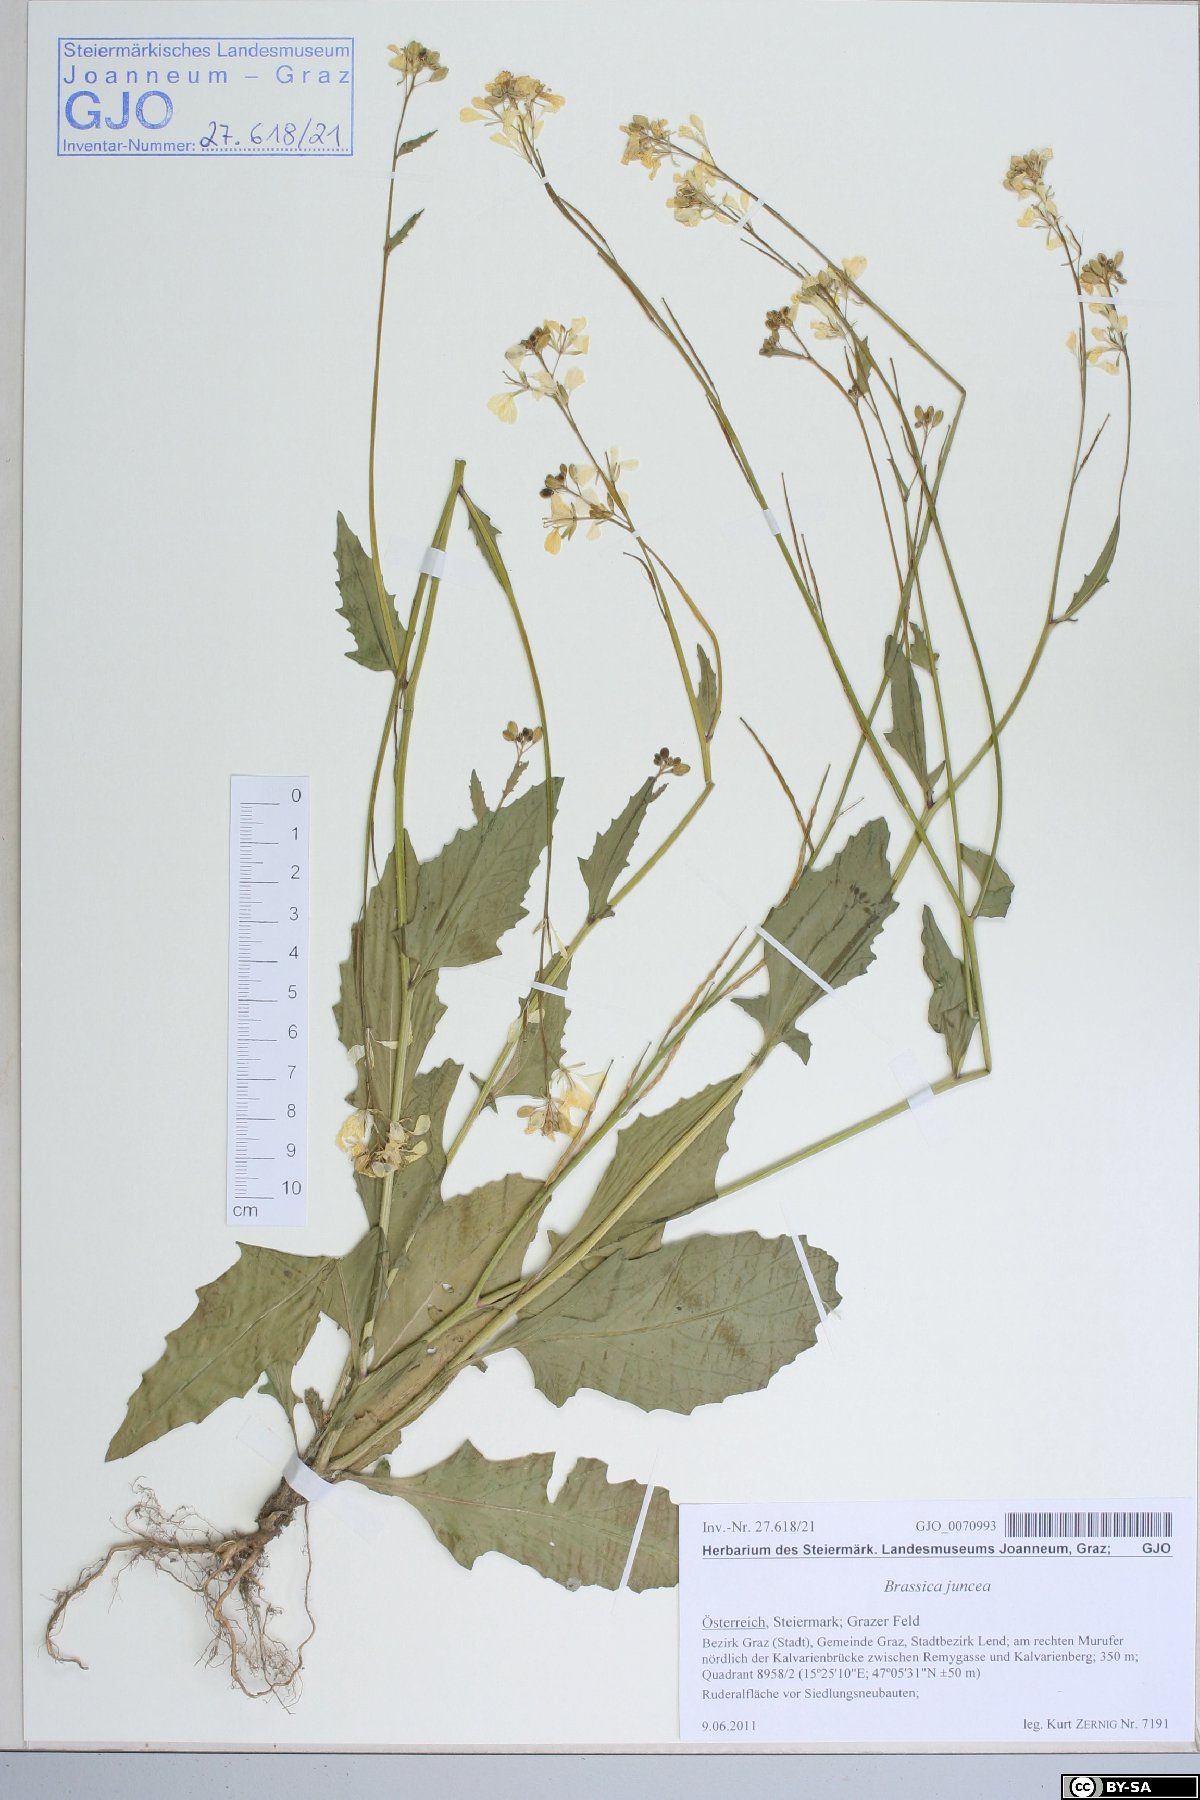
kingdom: Plantae
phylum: Tracheophyta
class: Magnoliopsida
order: Brassicales
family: Brassicaceae
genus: Sinapis
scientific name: Sinapis arvensis
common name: Charlock
